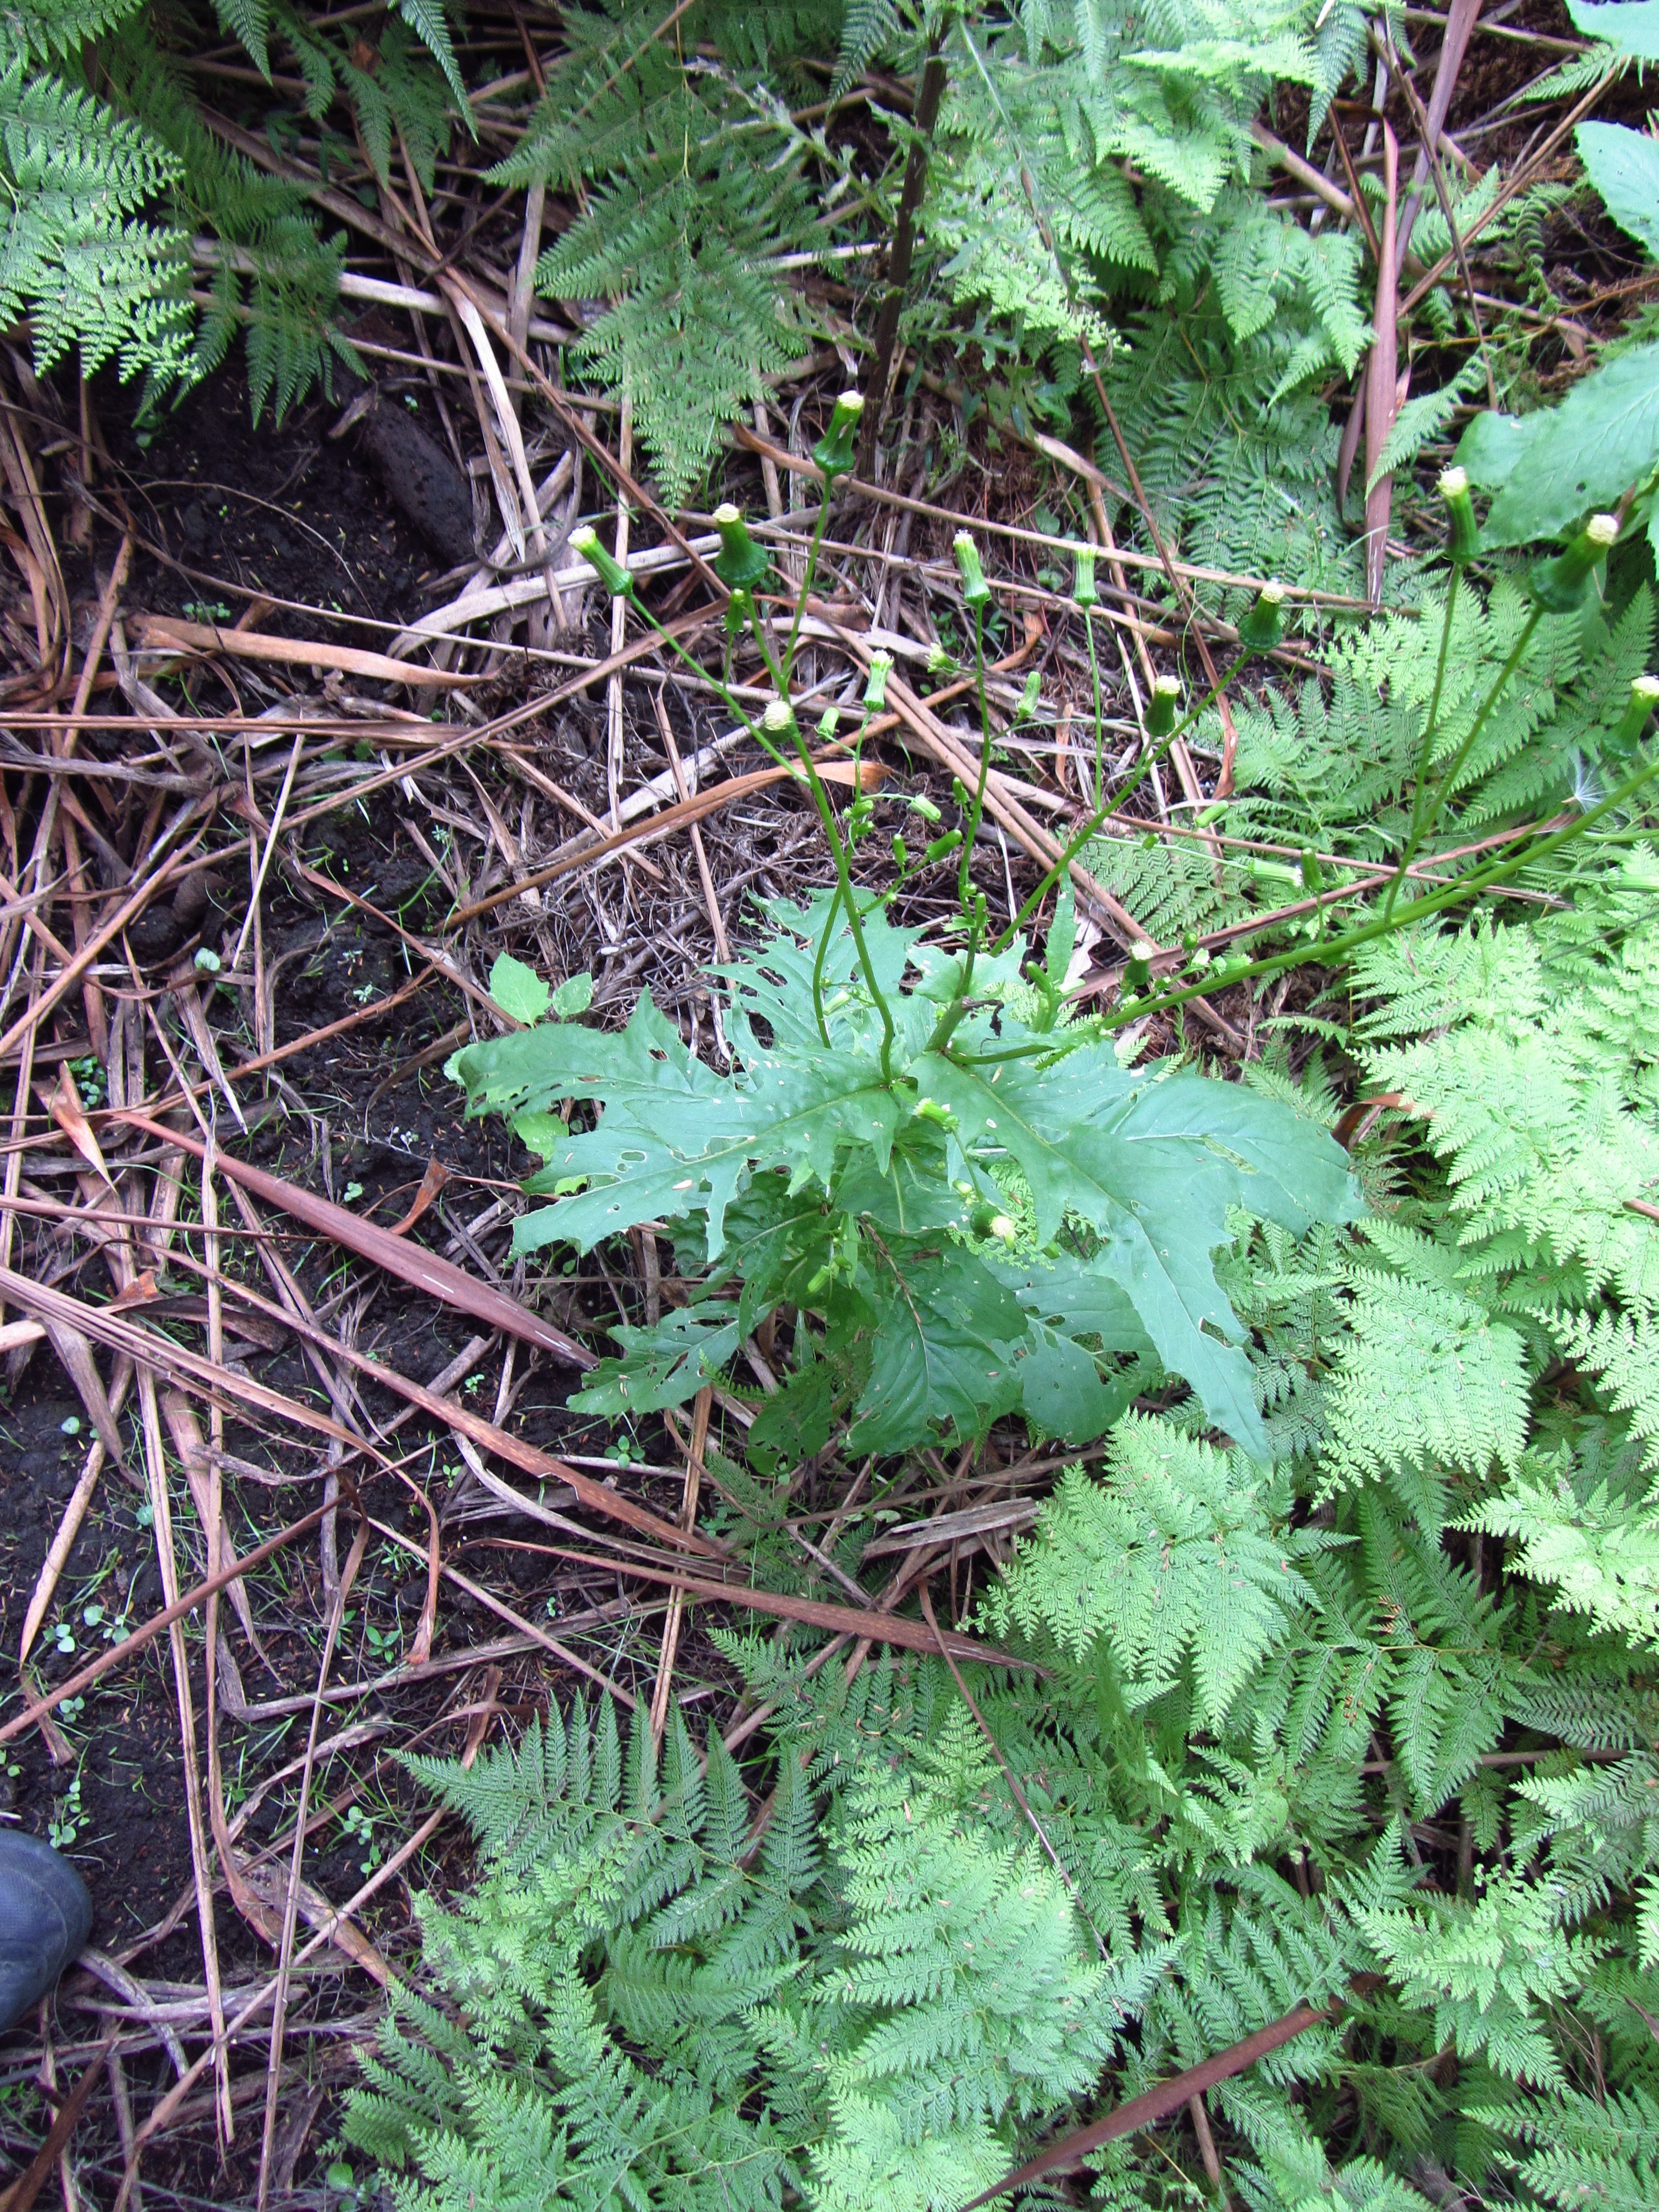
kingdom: Plantae
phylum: Tracheophyta
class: Magnoliopsida
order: Asterales
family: Asteraceae
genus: Erechtites
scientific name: Erechtites hieraciifolius
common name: American burnweed
